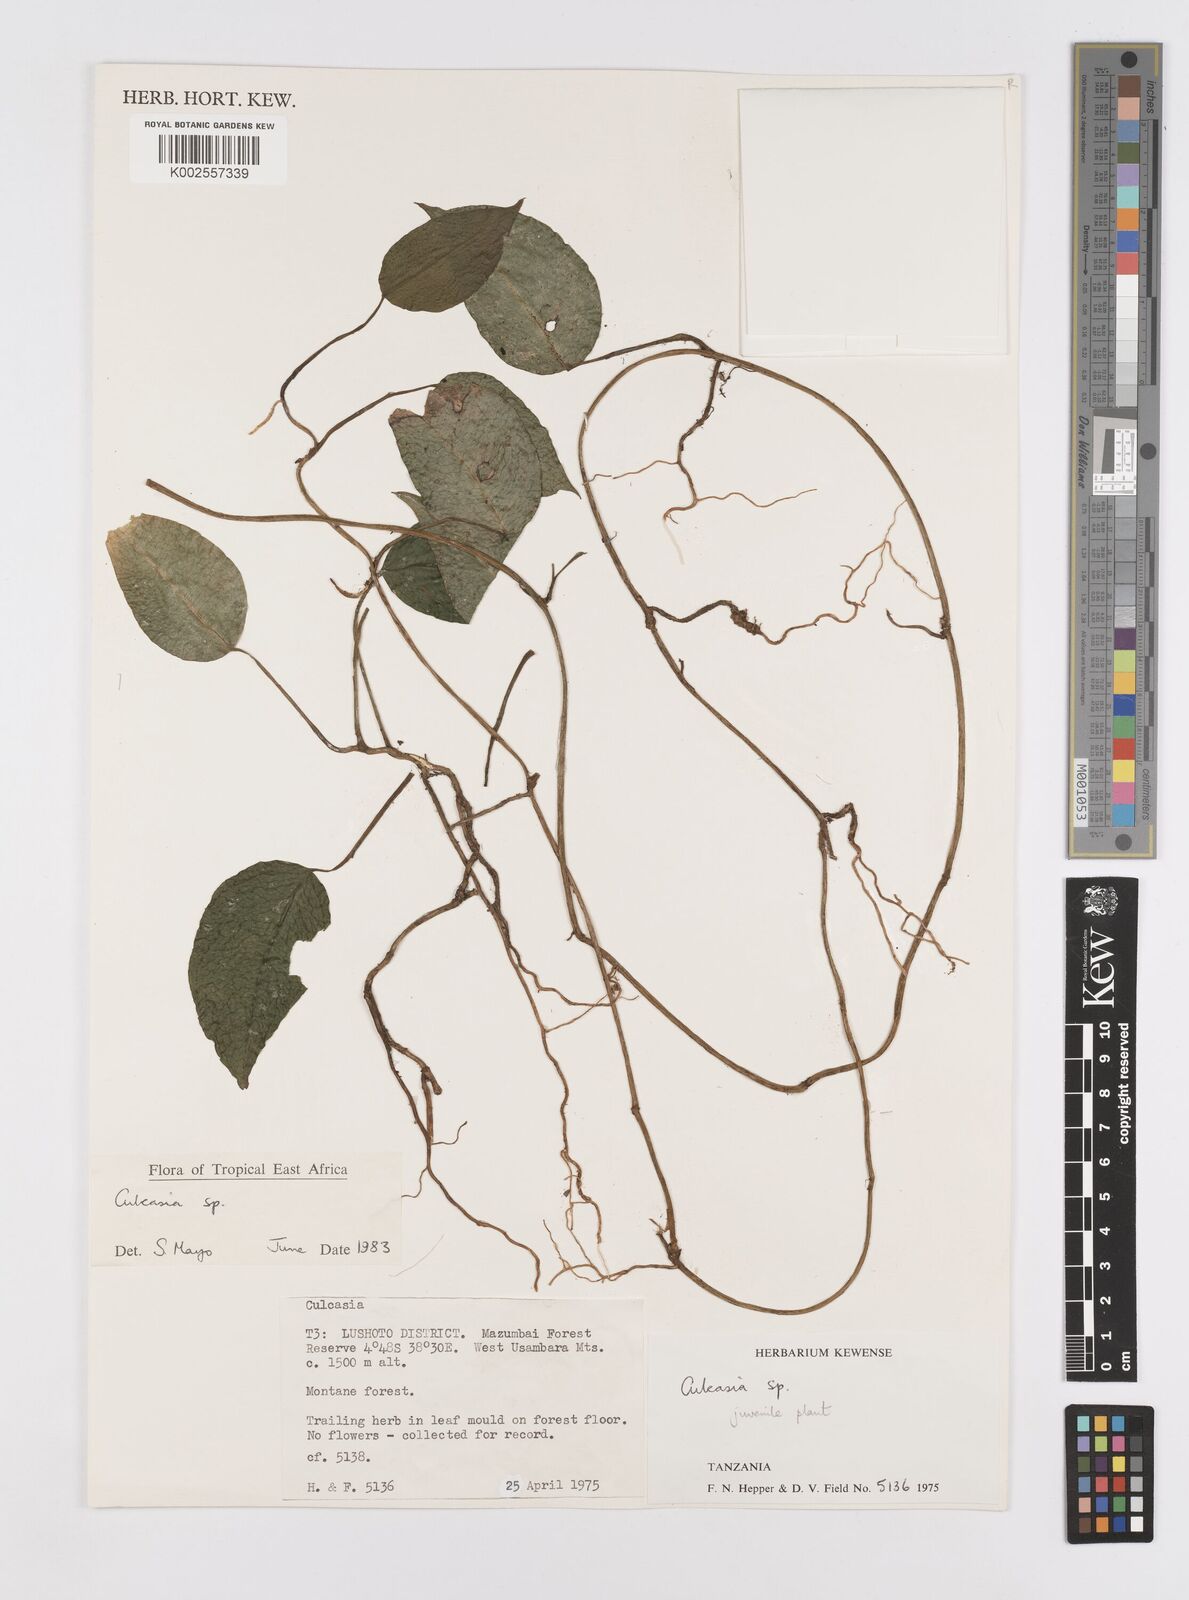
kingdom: Plantae
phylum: Tracheophyta
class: Liliopsida
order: Alismatales
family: Araceae
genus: Culcasia
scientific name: Culcasia
